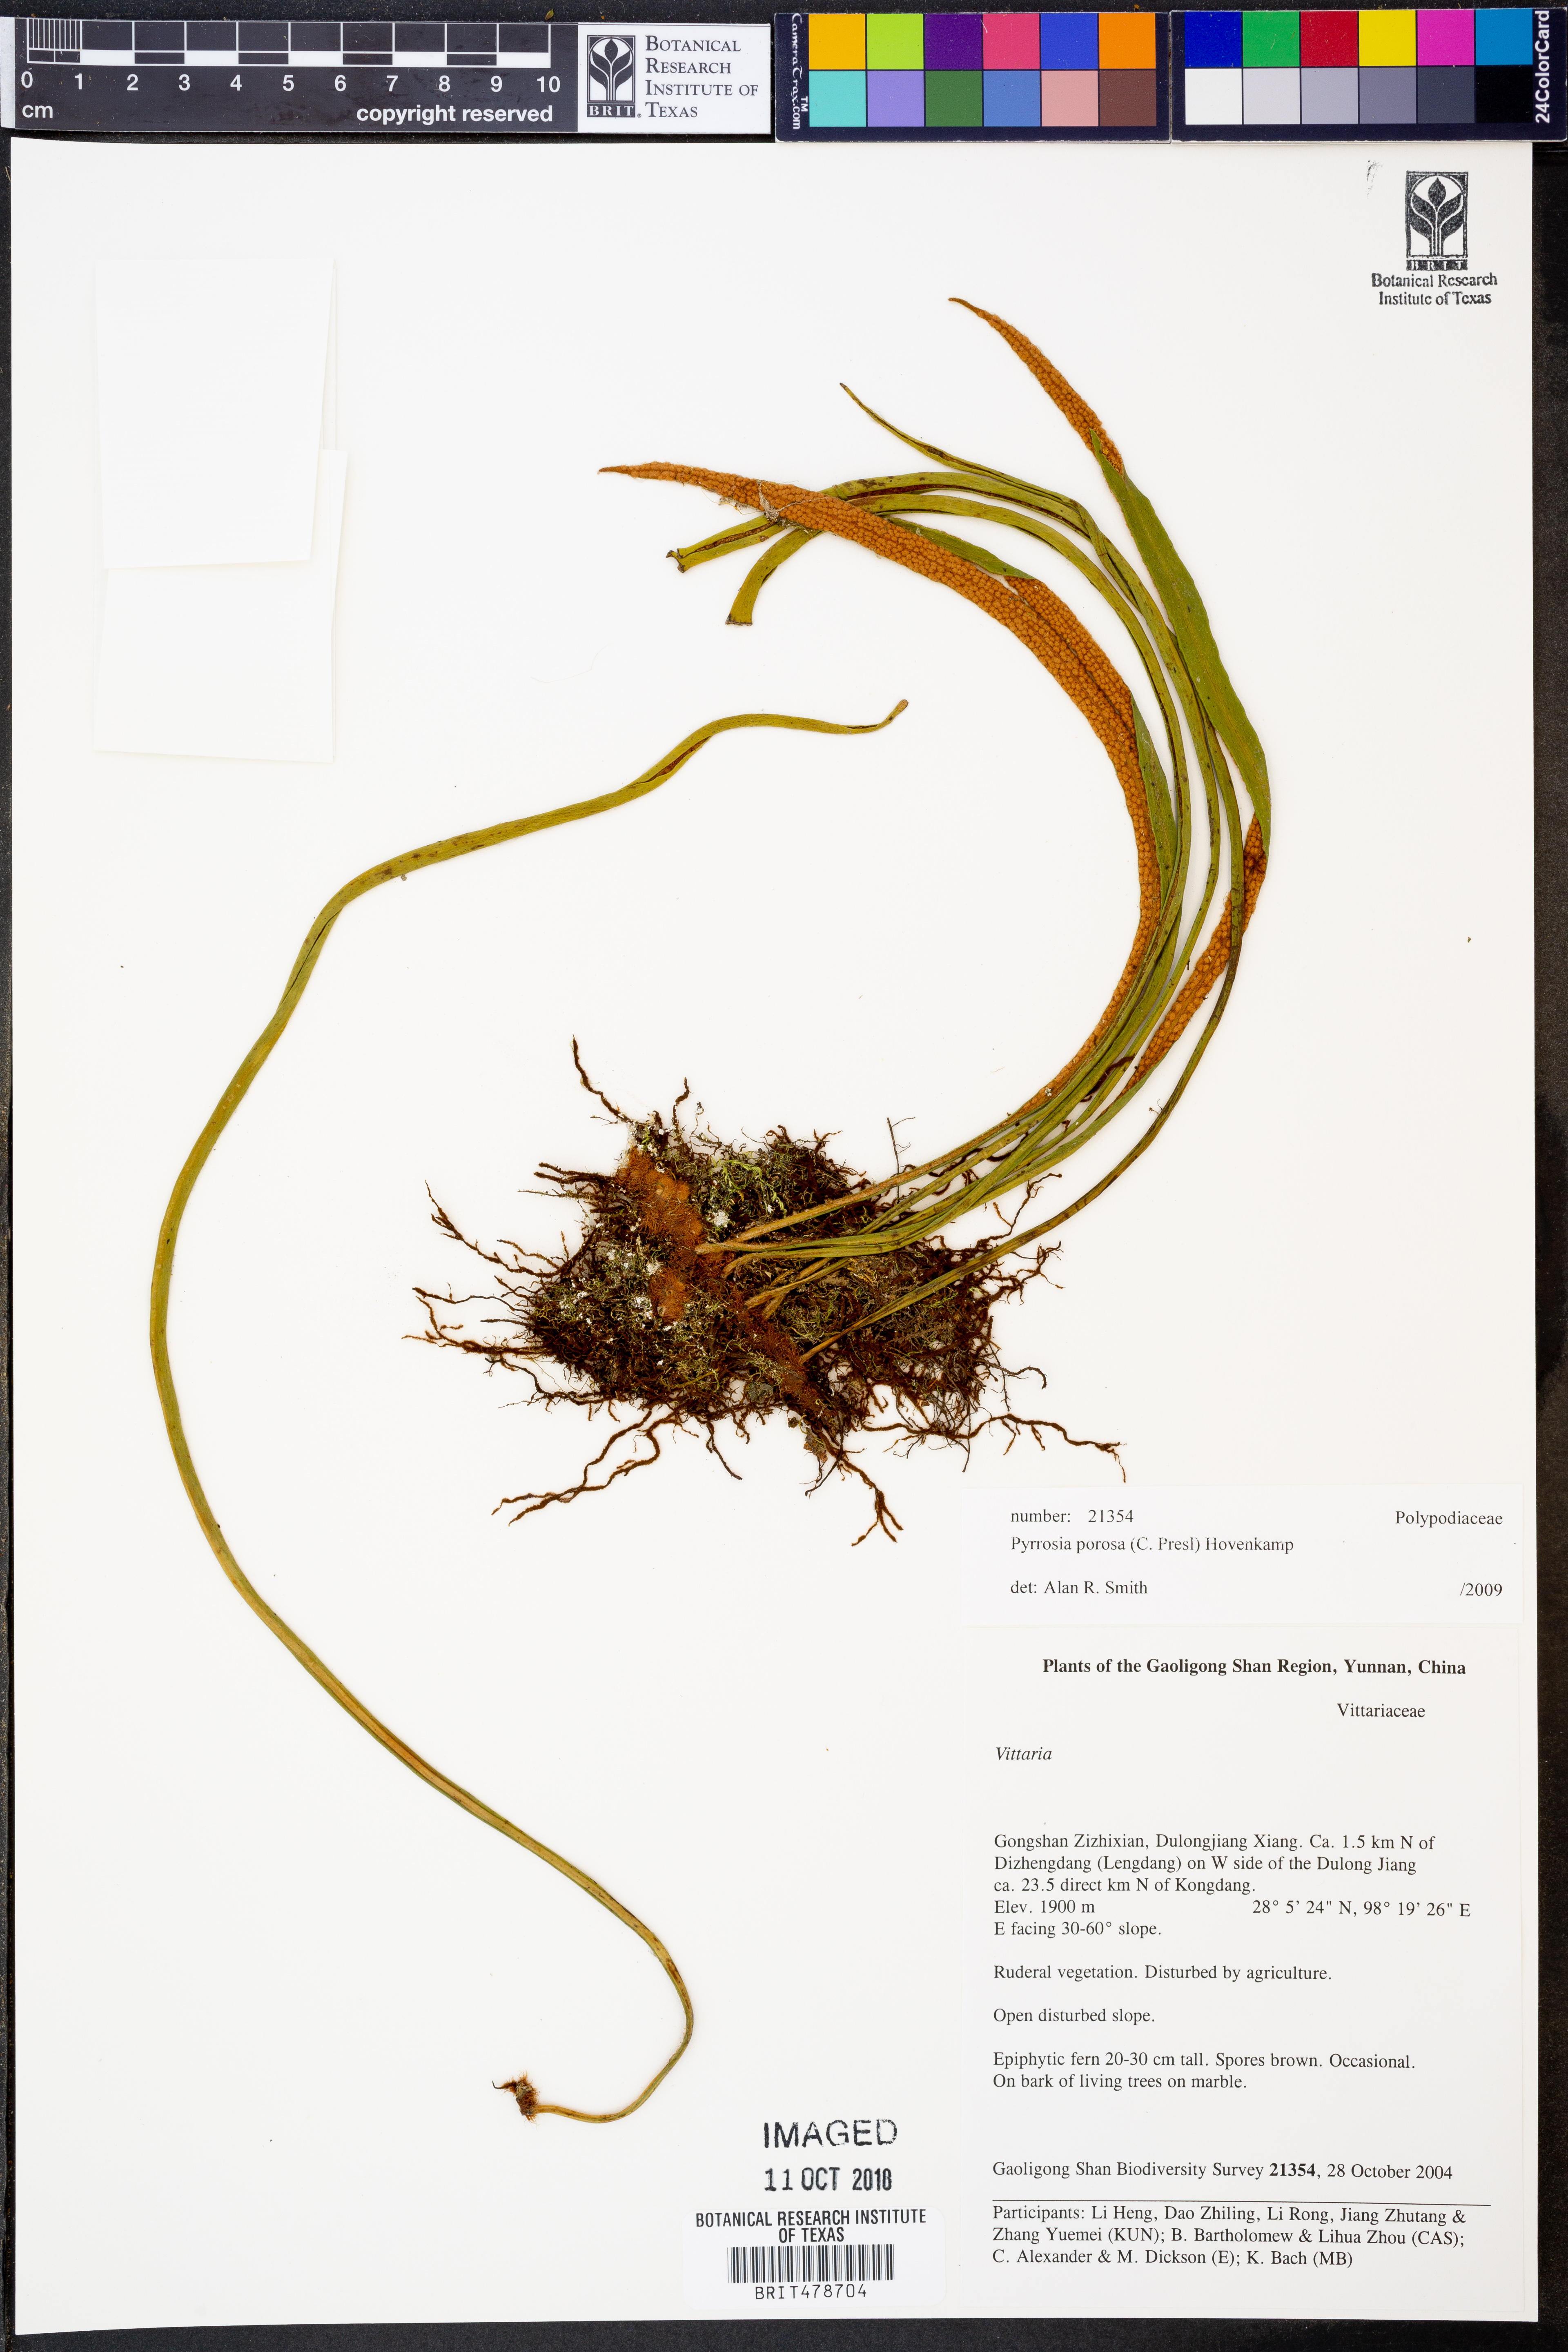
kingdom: Plantae
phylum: Tracheophyta
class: Polypodiopsida
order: Polypodiales
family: Polypodiaceae
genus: Pyrrosia
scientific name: Pyrrosia porosa
